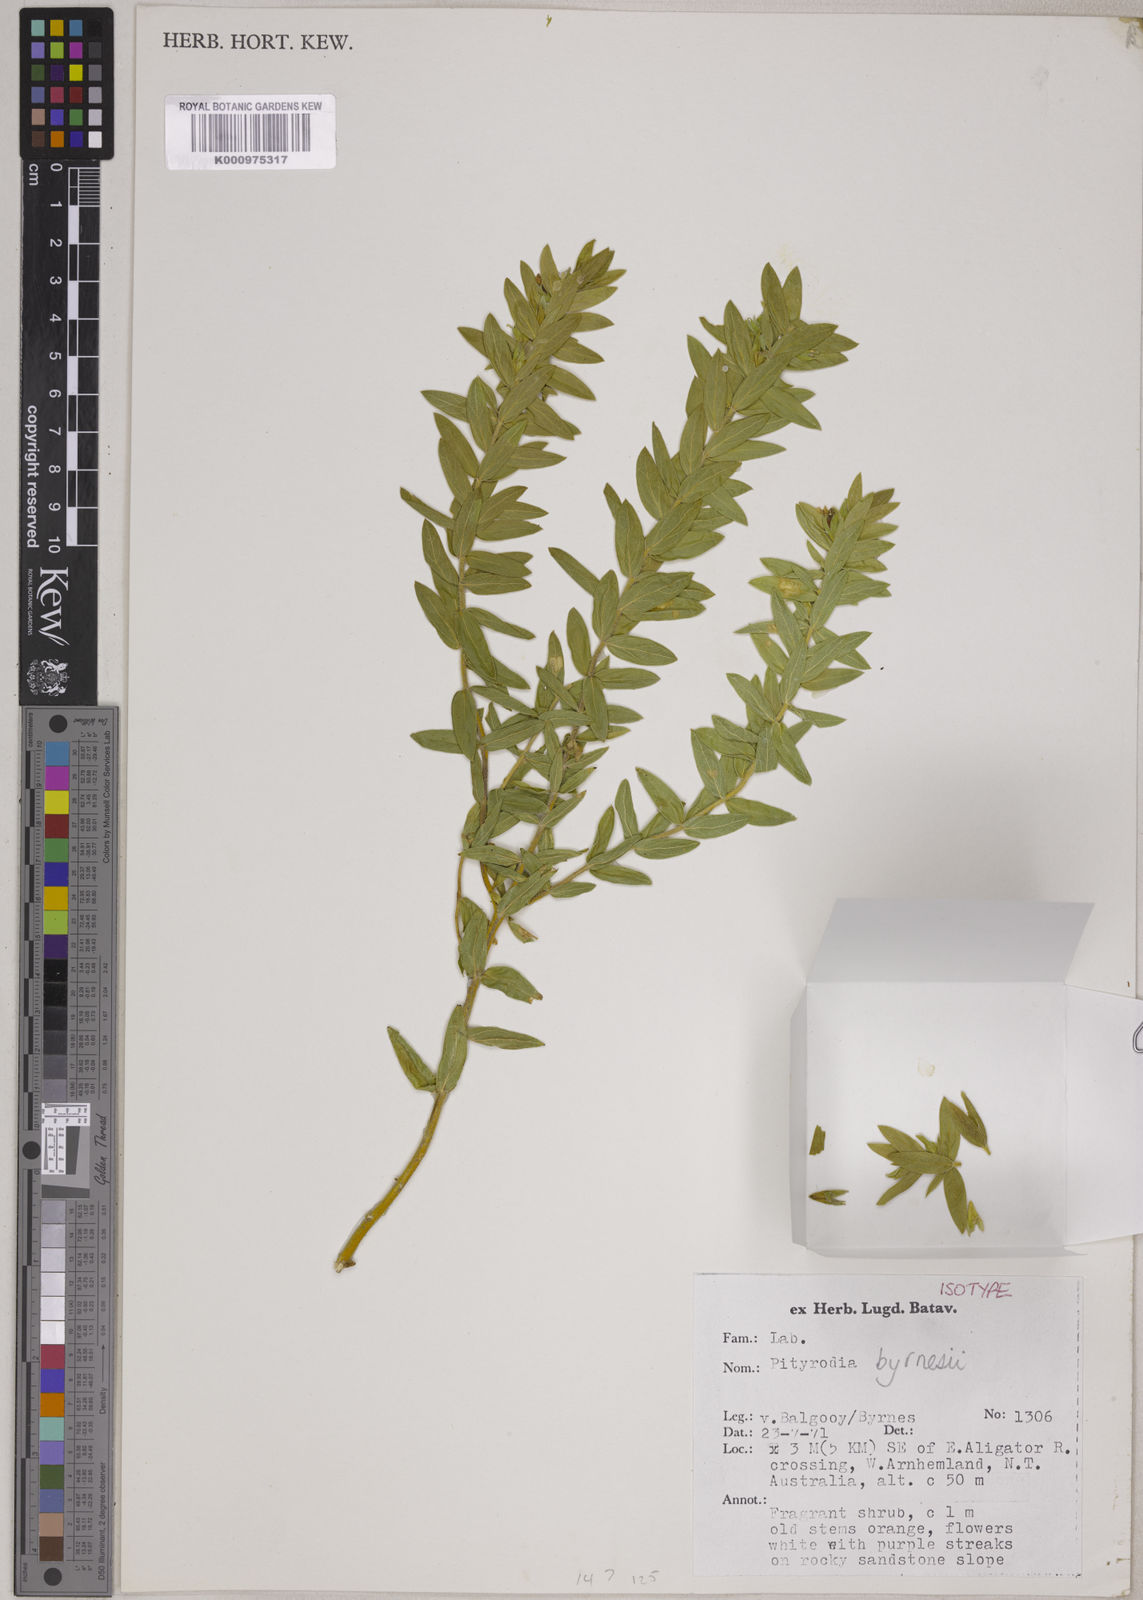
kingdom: Plantae
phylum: Tracheophyta
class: Magnoliopsida
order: Lamiales
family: Lamiaceae
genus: Pityrodia
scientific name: Pityrodia byrnesii
